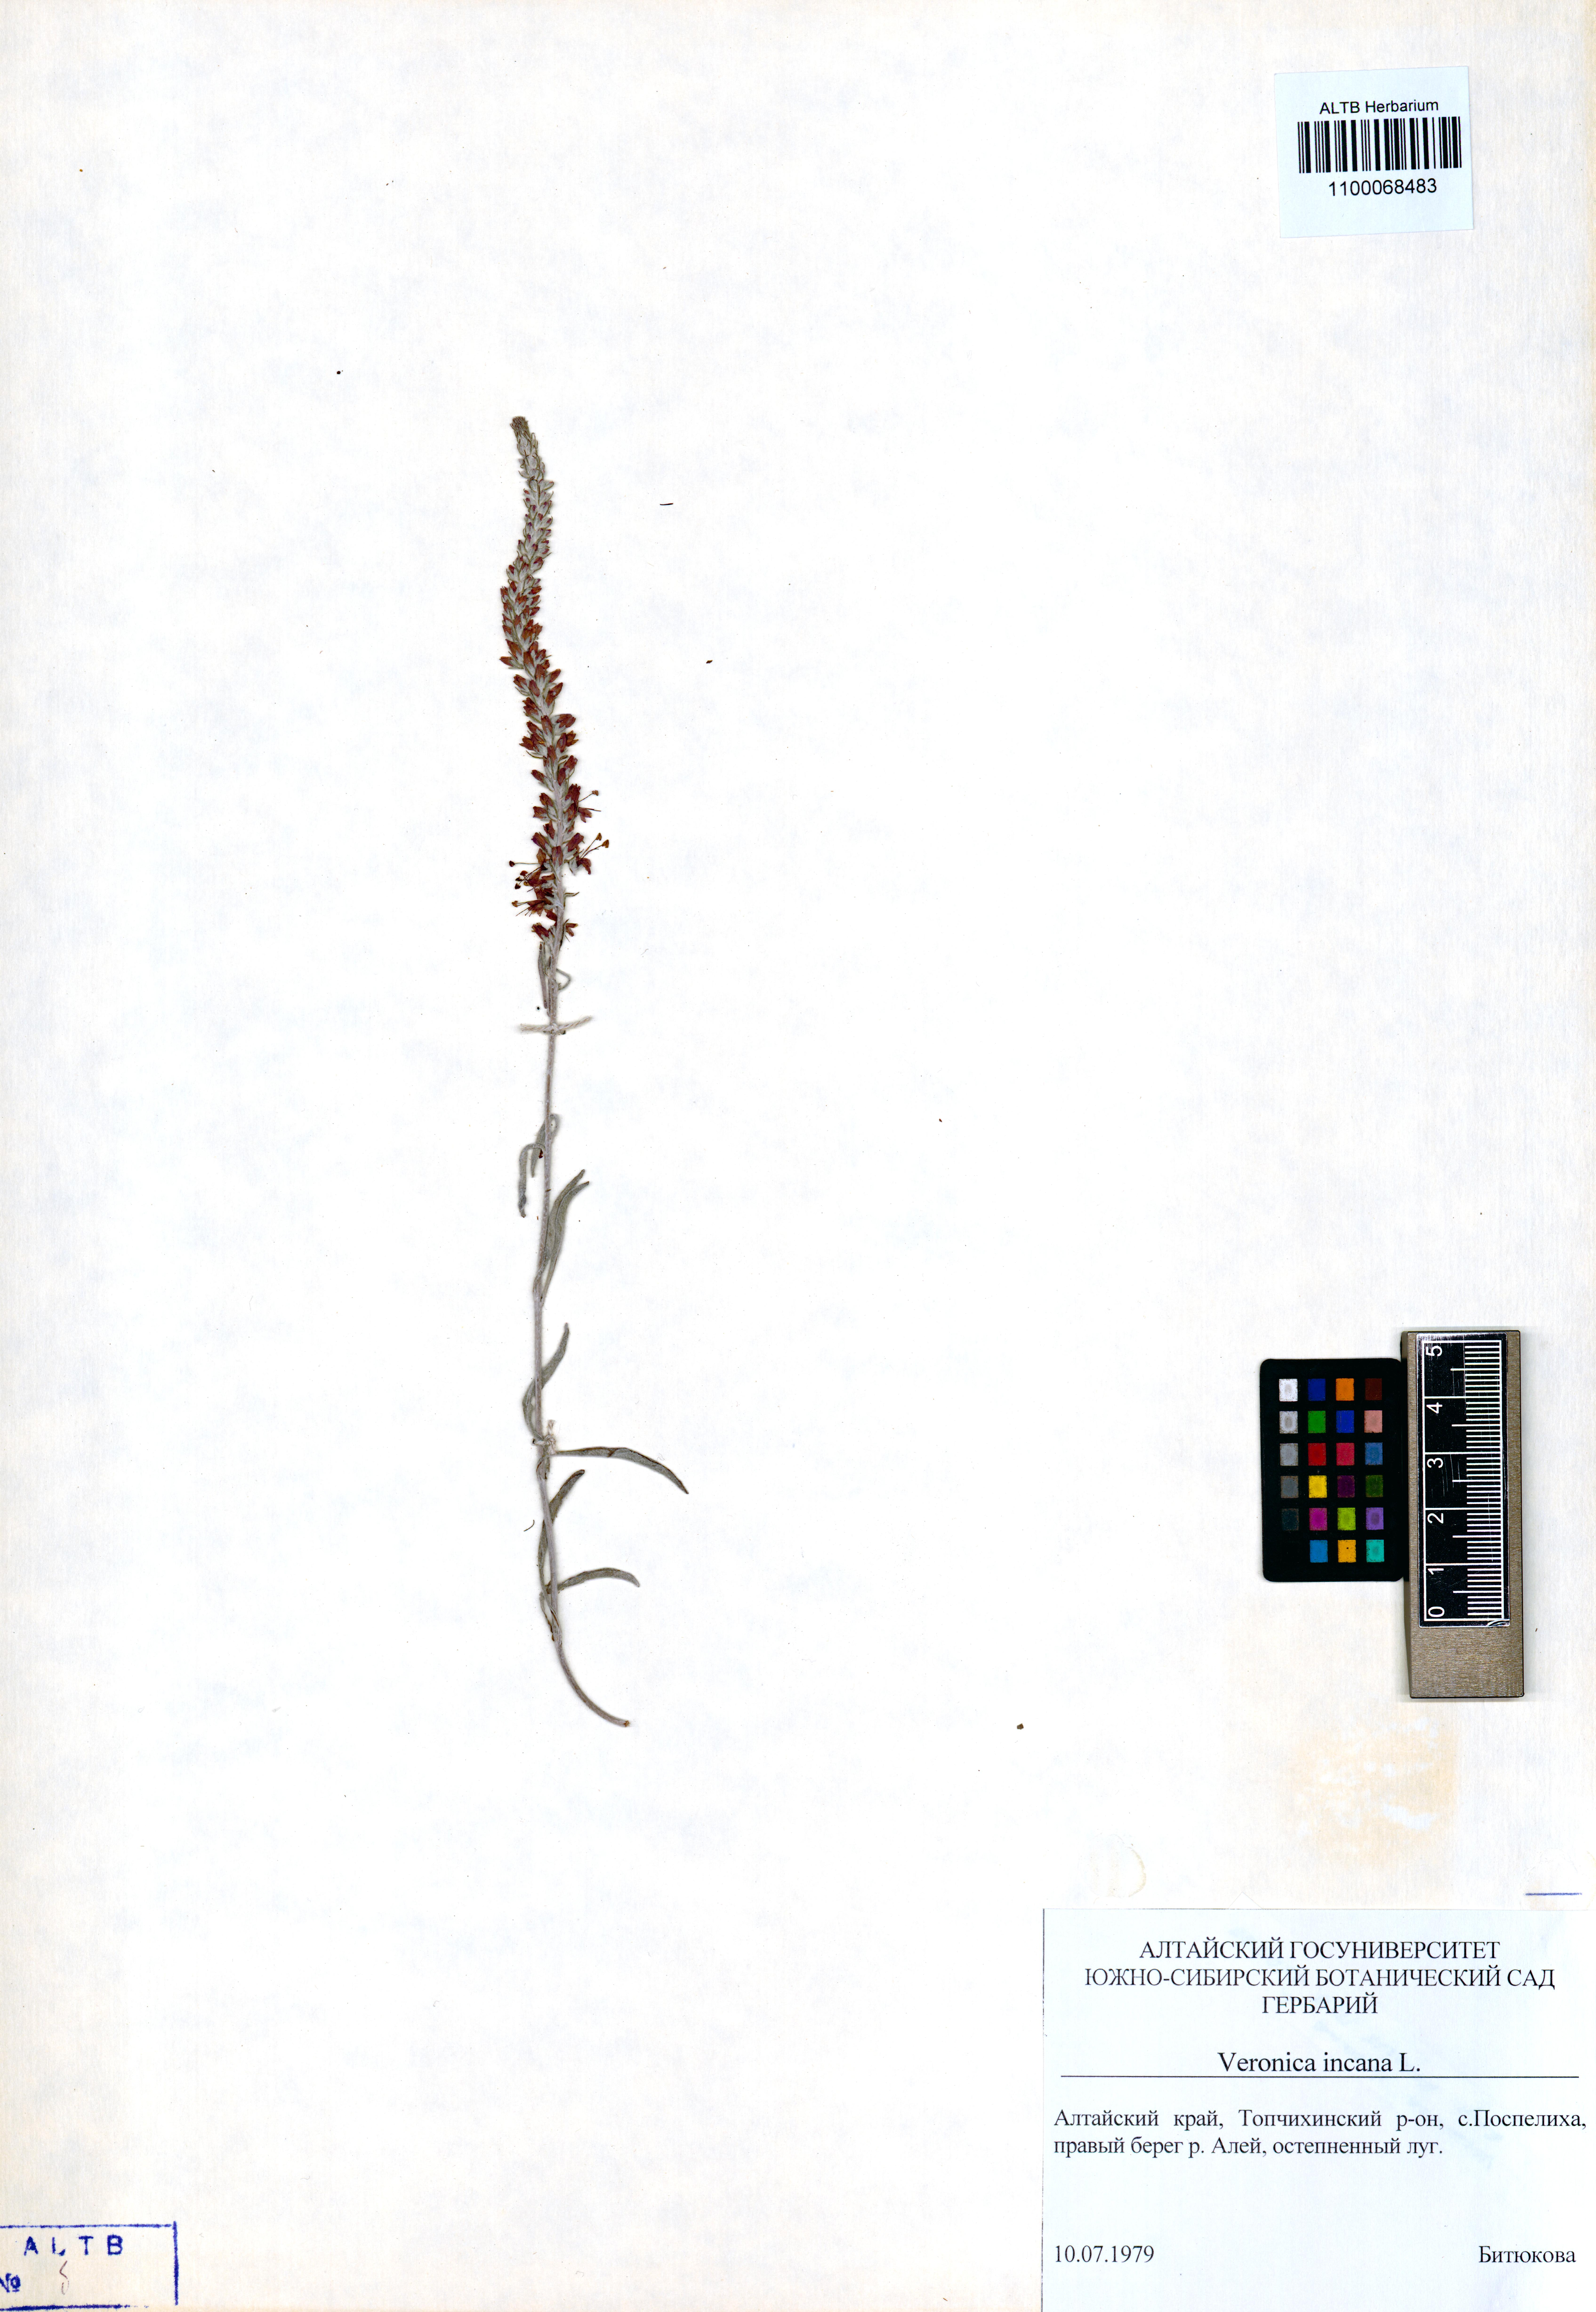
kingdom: Plantae
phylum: Tracheophyta
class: Magnoliopsida
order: Lamiales
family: Plantaginaceae
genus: Veronica
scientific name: Veronica incana
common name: Silver speedwell
